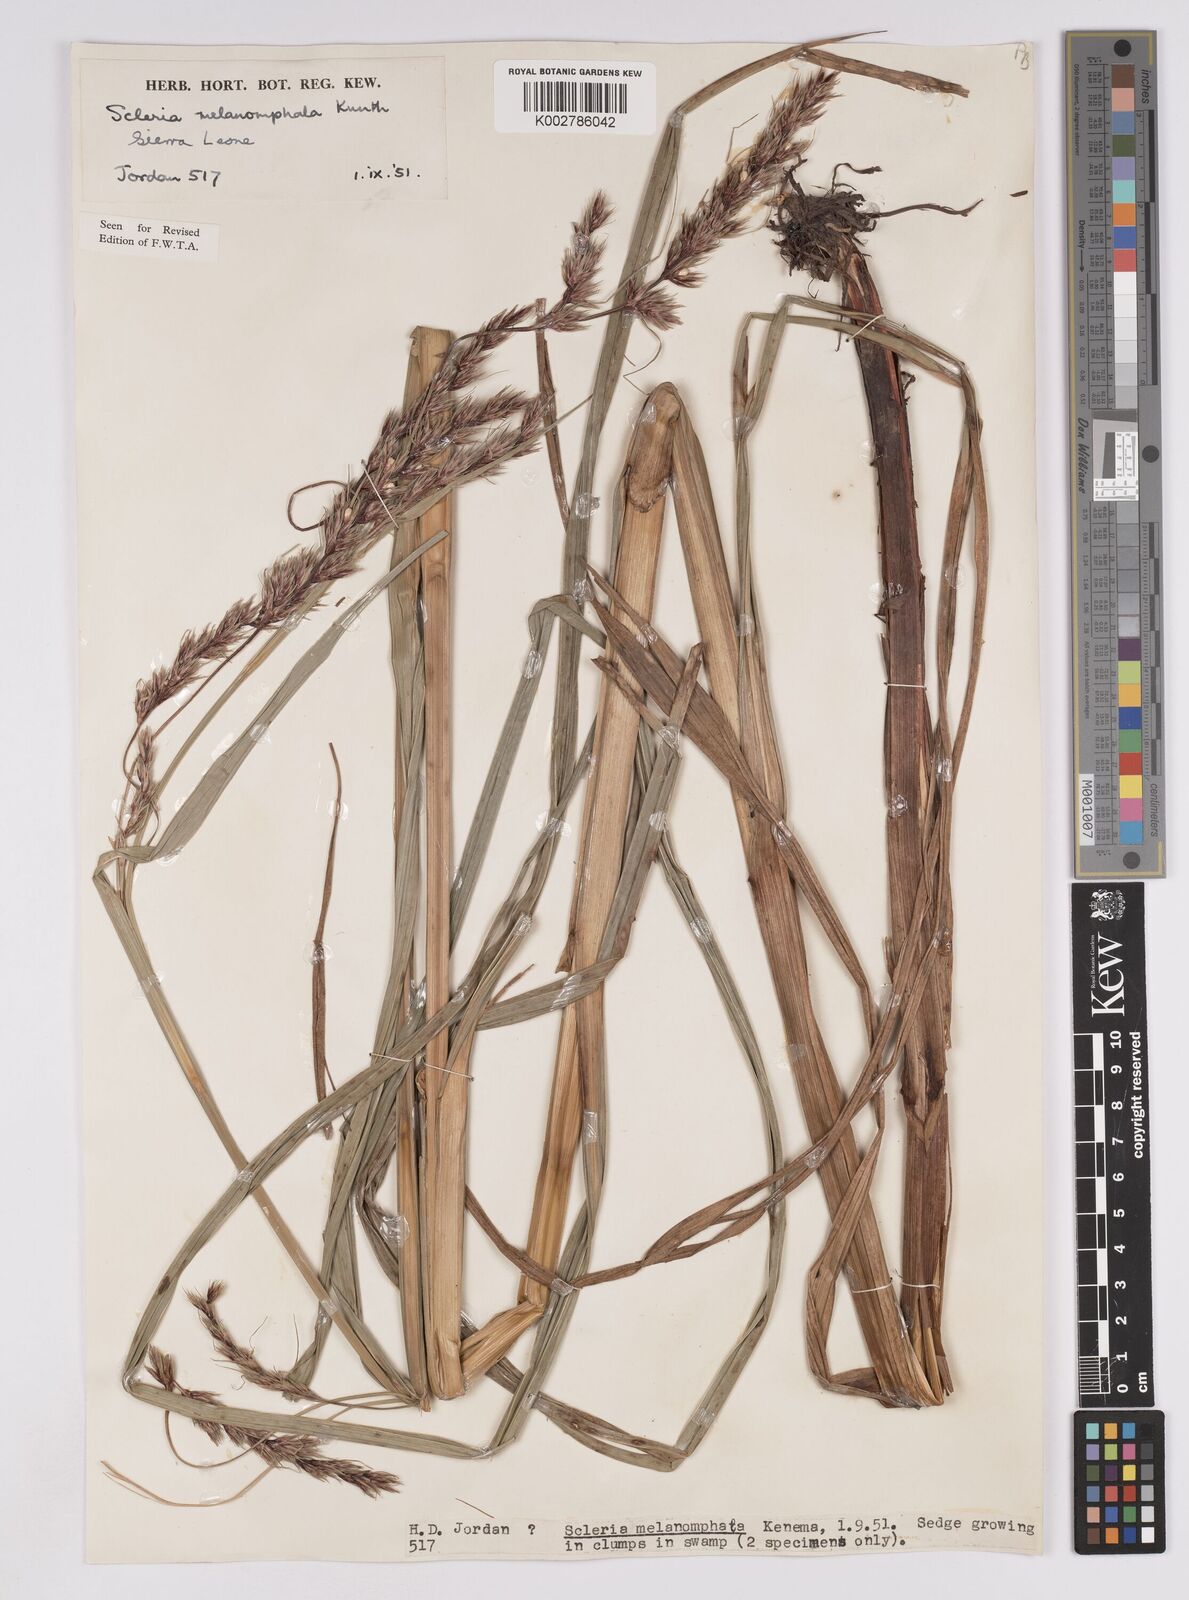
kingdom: Plantae
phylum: Tracheophyta
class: Liliopsida
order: Poales
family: Cyperaceae
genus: Scleria
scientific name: Scleria melanomphala
